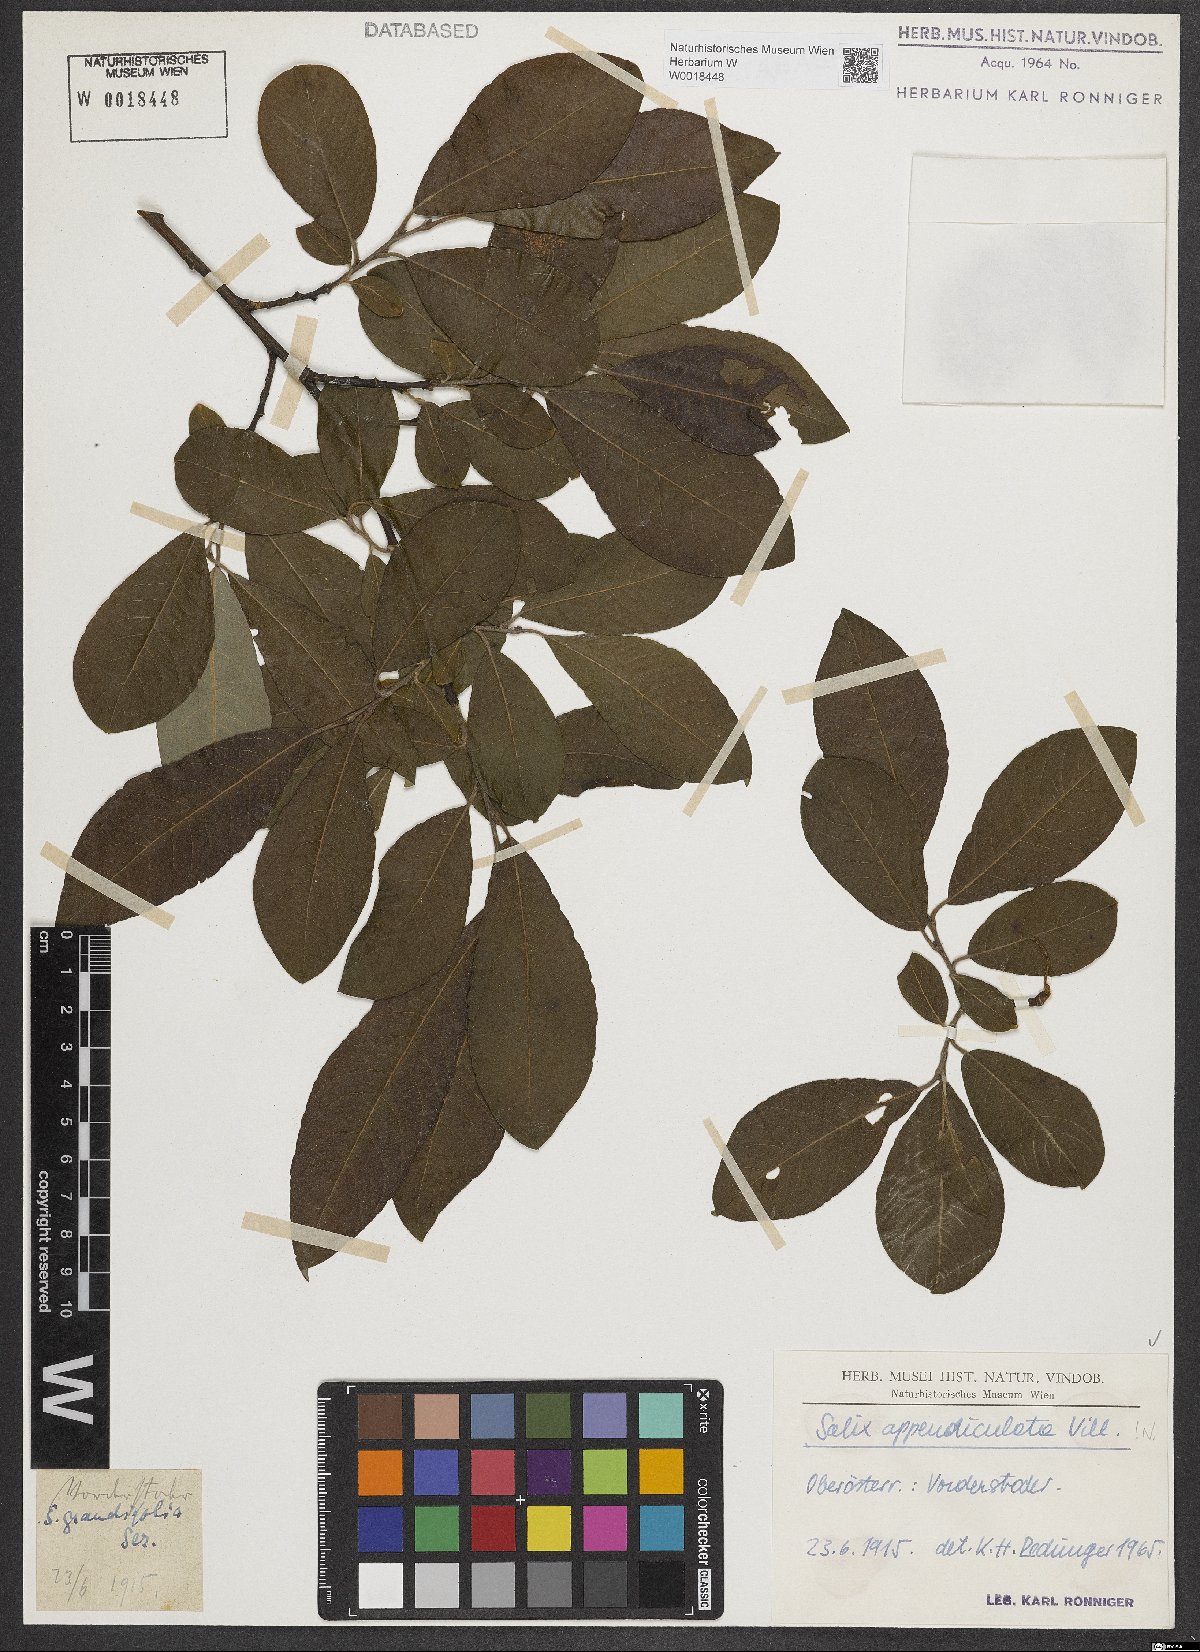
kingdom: Plantae
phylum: Tracheophyta
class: Magnoliopsida
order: Malpighiales
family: Salicaceae
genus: Salix
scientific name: Salix appendiculata
